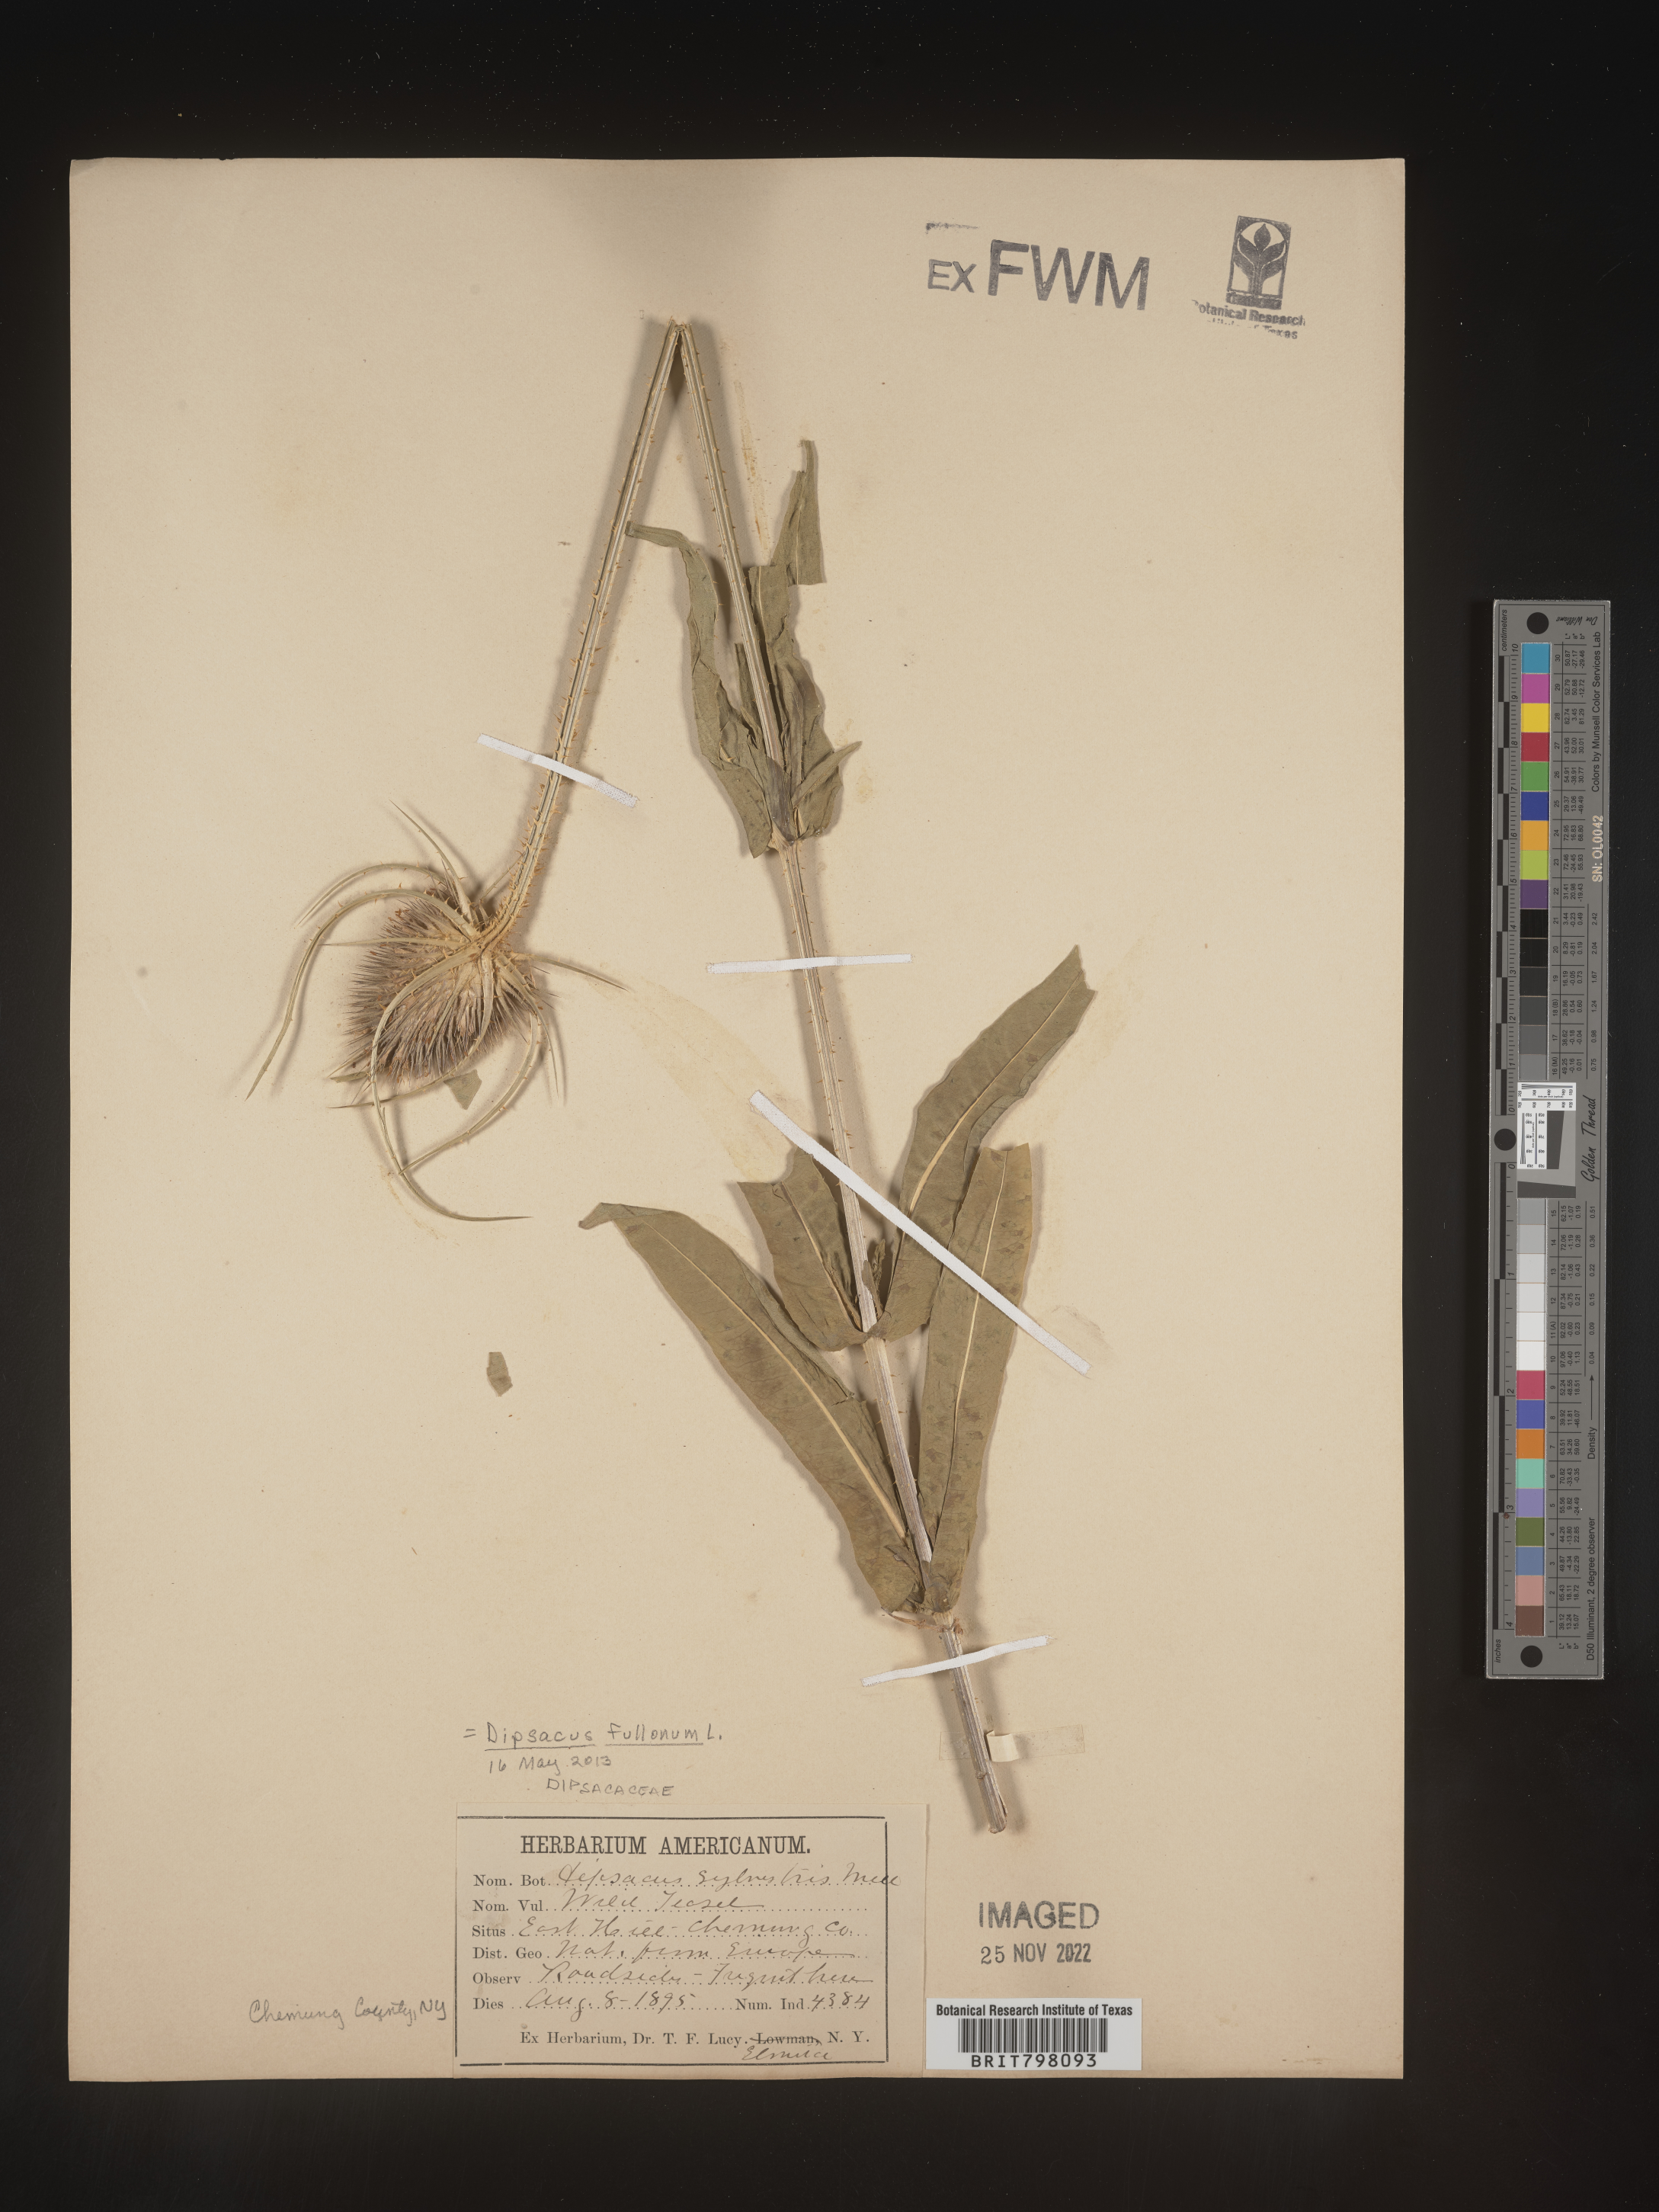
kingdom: Plantae
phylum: Tracheophyta
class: Magnoliopsida
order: Dipsacales
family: Caprifoliaceae
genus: Dipsacus
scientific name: Dipsacus
